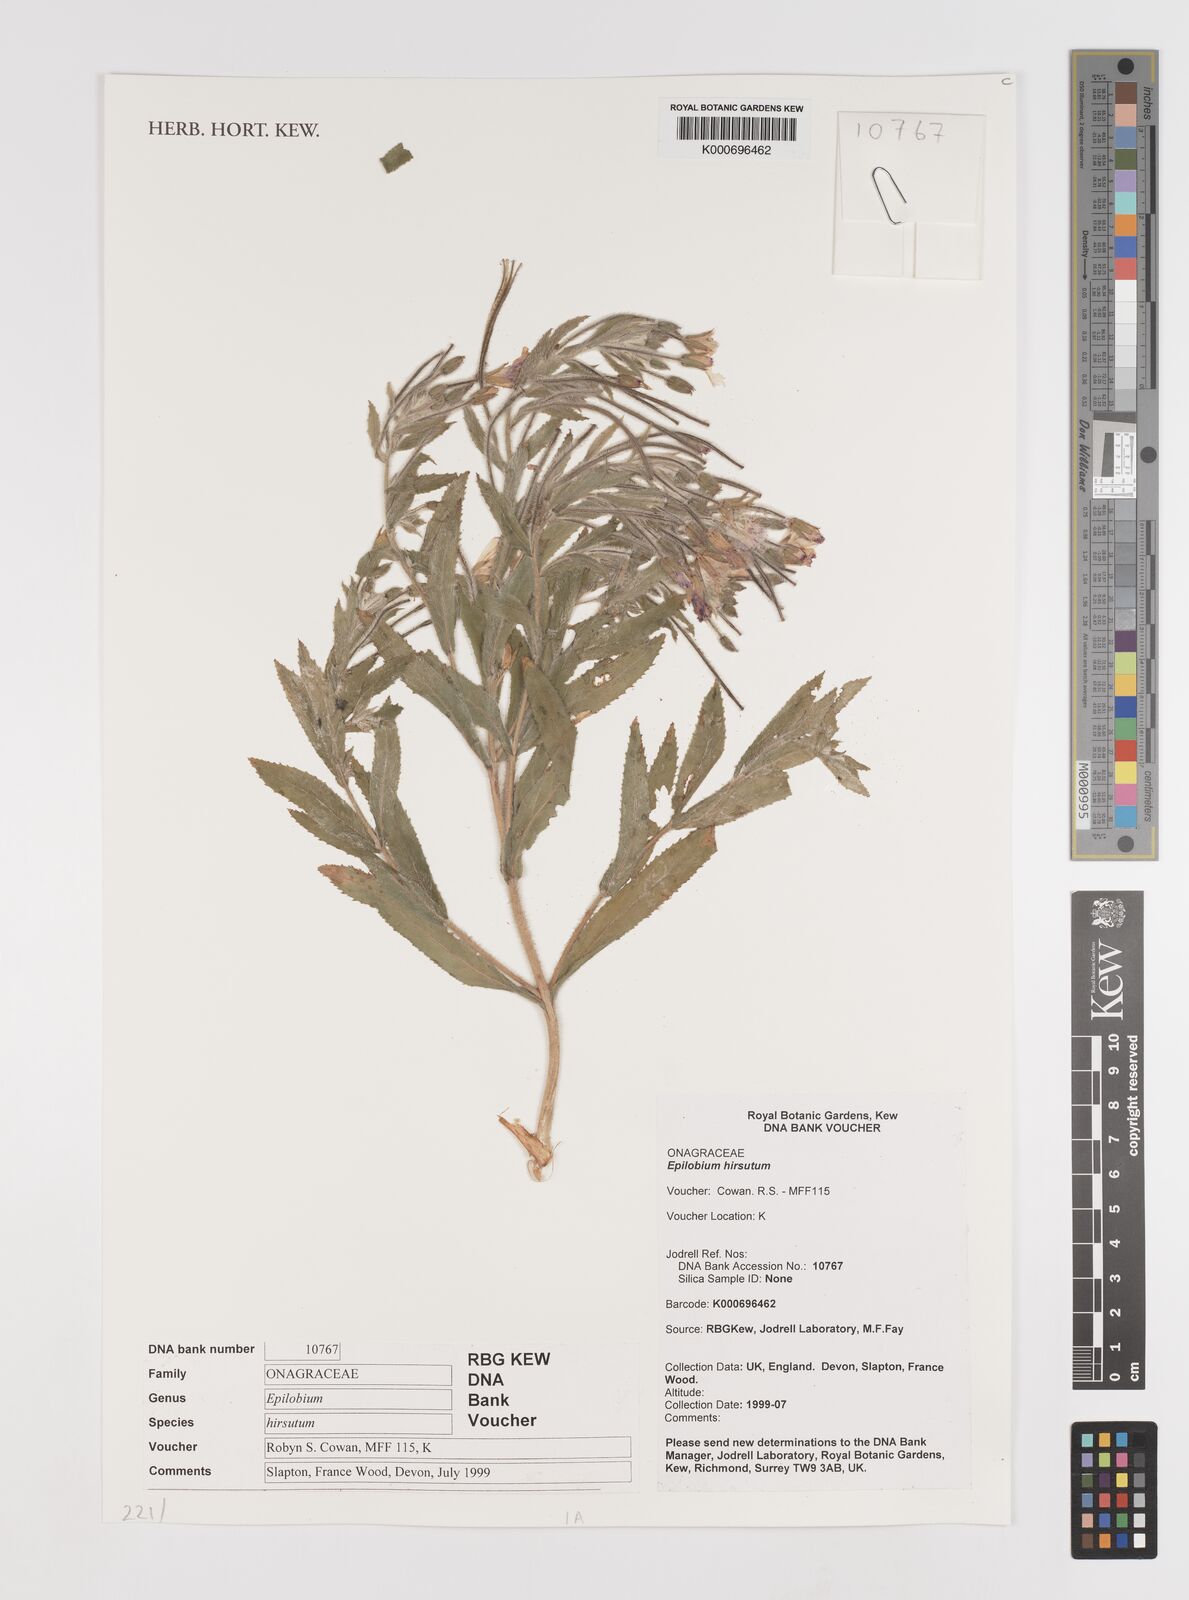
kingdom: Plantae
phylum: Tracheophyta
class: Magnoliopsida
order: Myrtales
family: Onagraceae
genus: Epilobium
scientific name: Epilobium hirsutum
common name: Great willowherb
